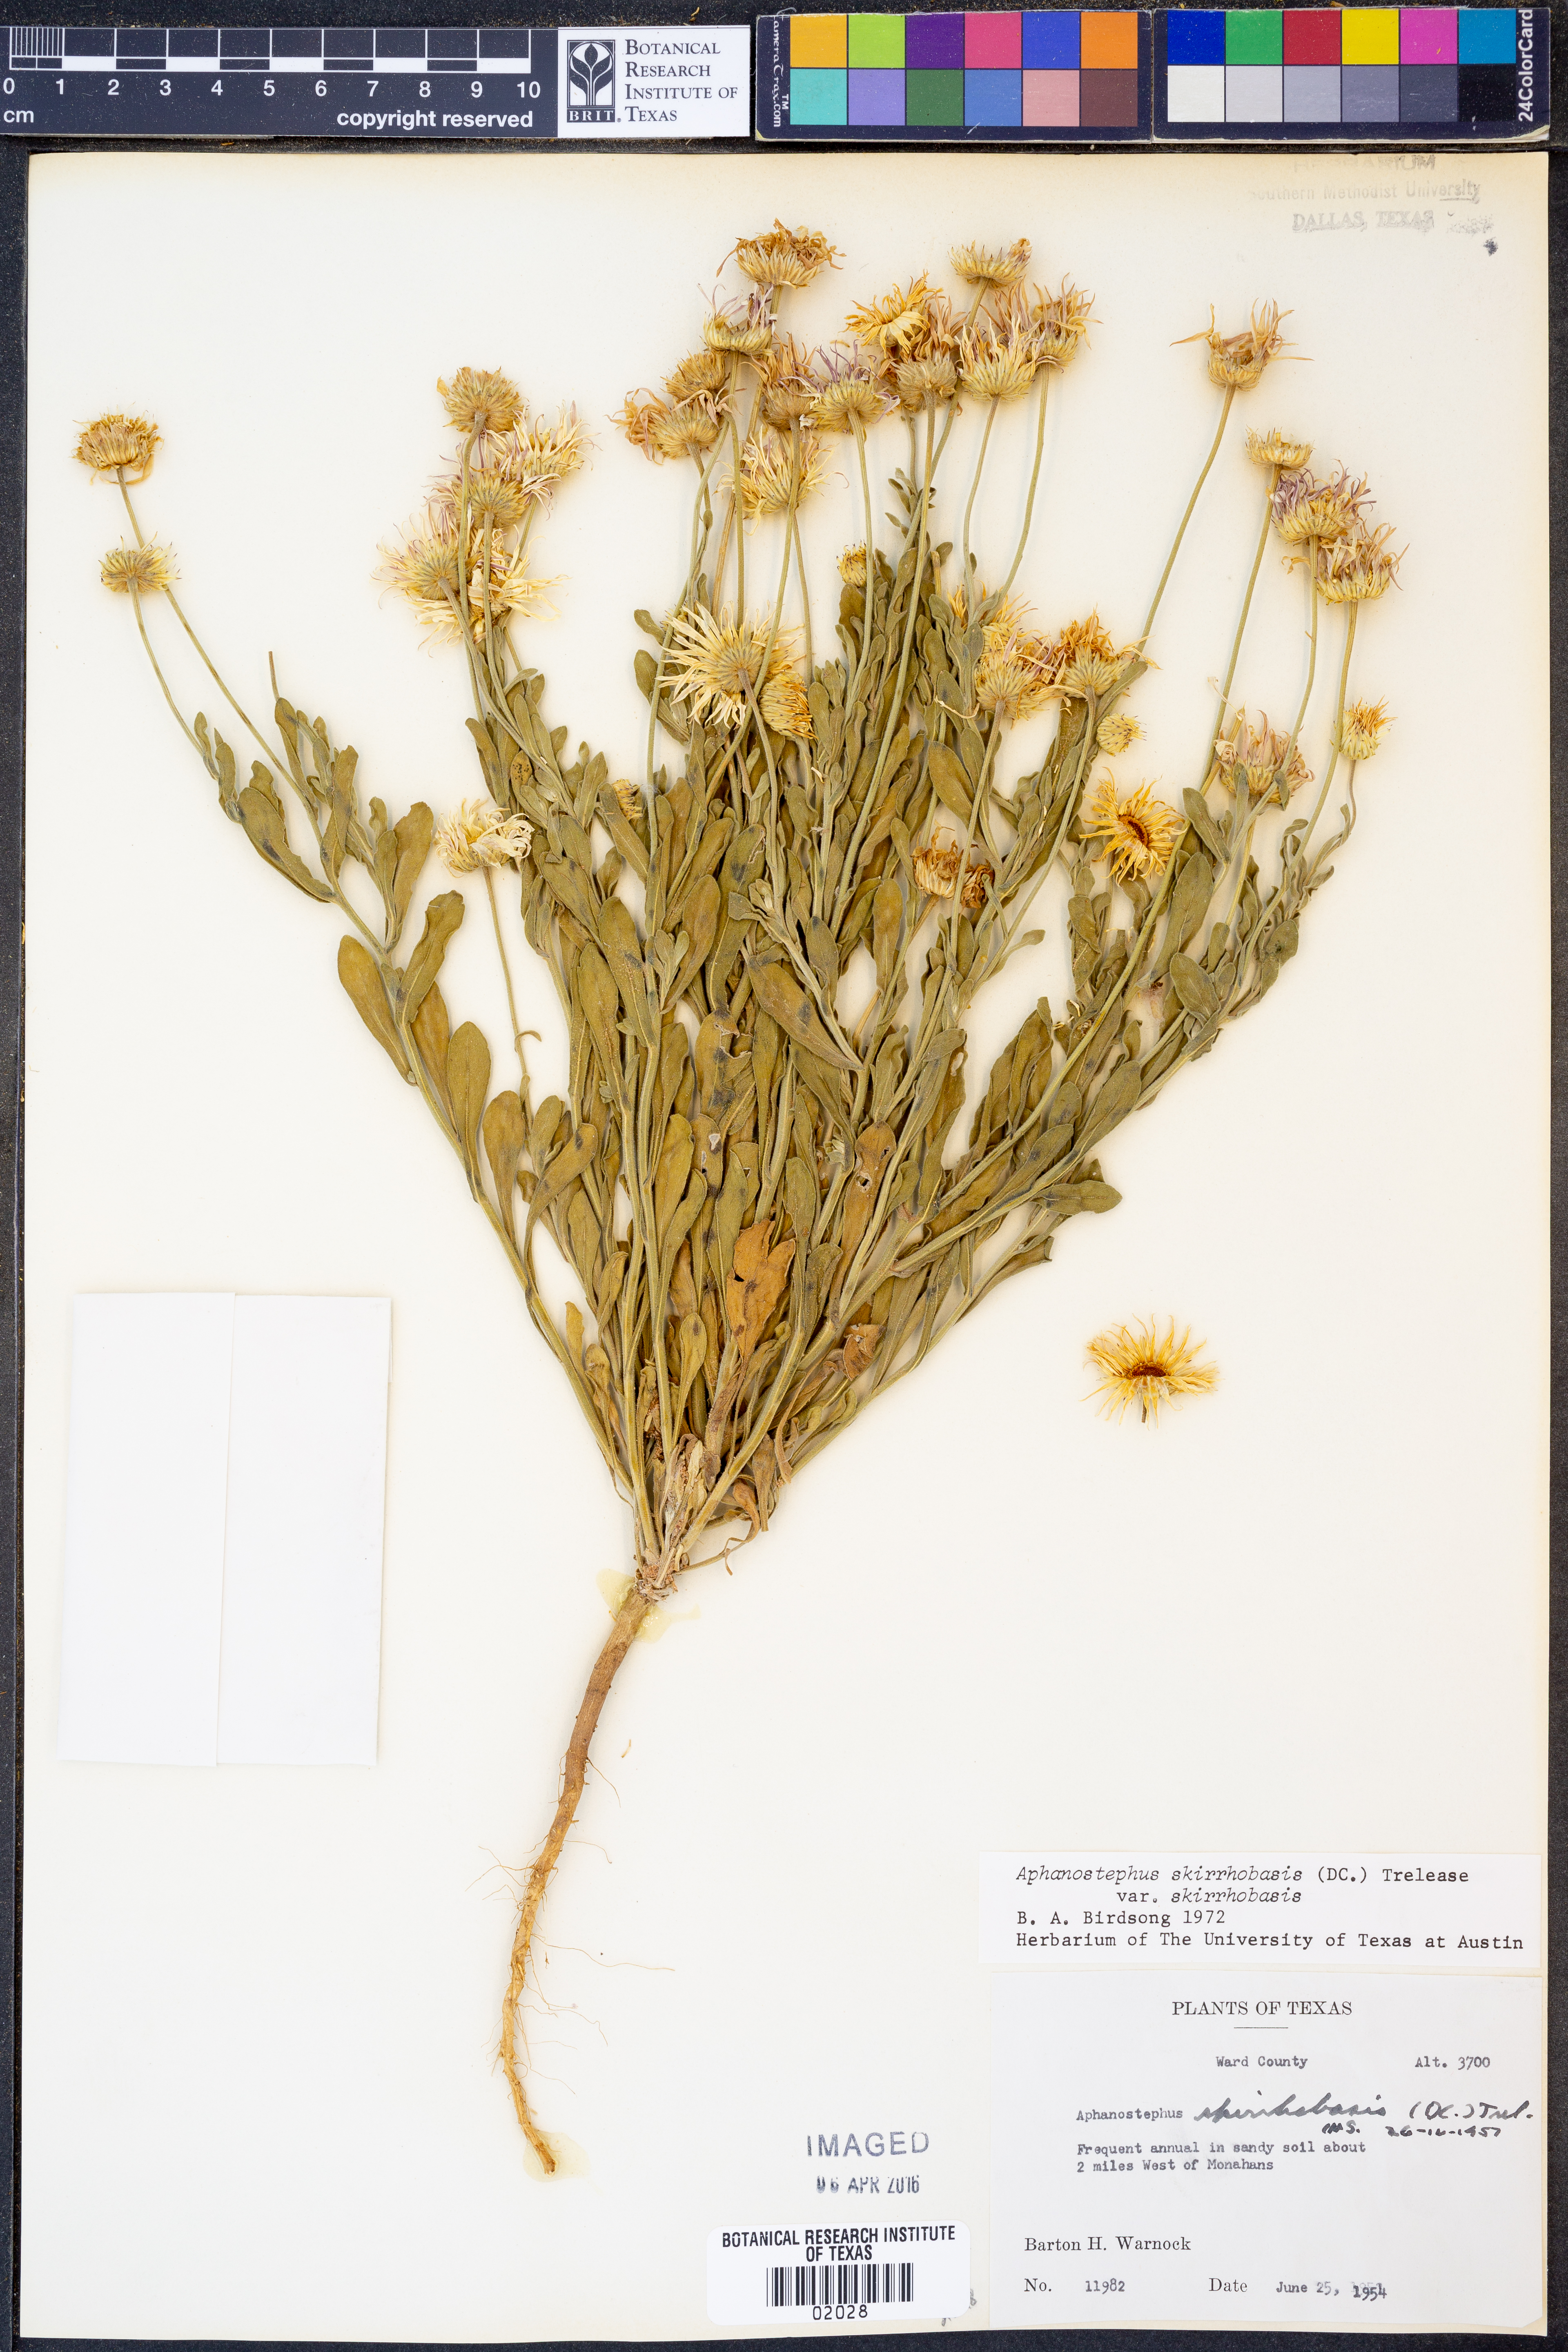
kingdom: Plantae
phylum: Tracheophyta
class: Magnoliopsida
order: Asterales
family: Asteraceae
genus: Aphanostephus
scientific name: Aphanostephus skirrhobasis
